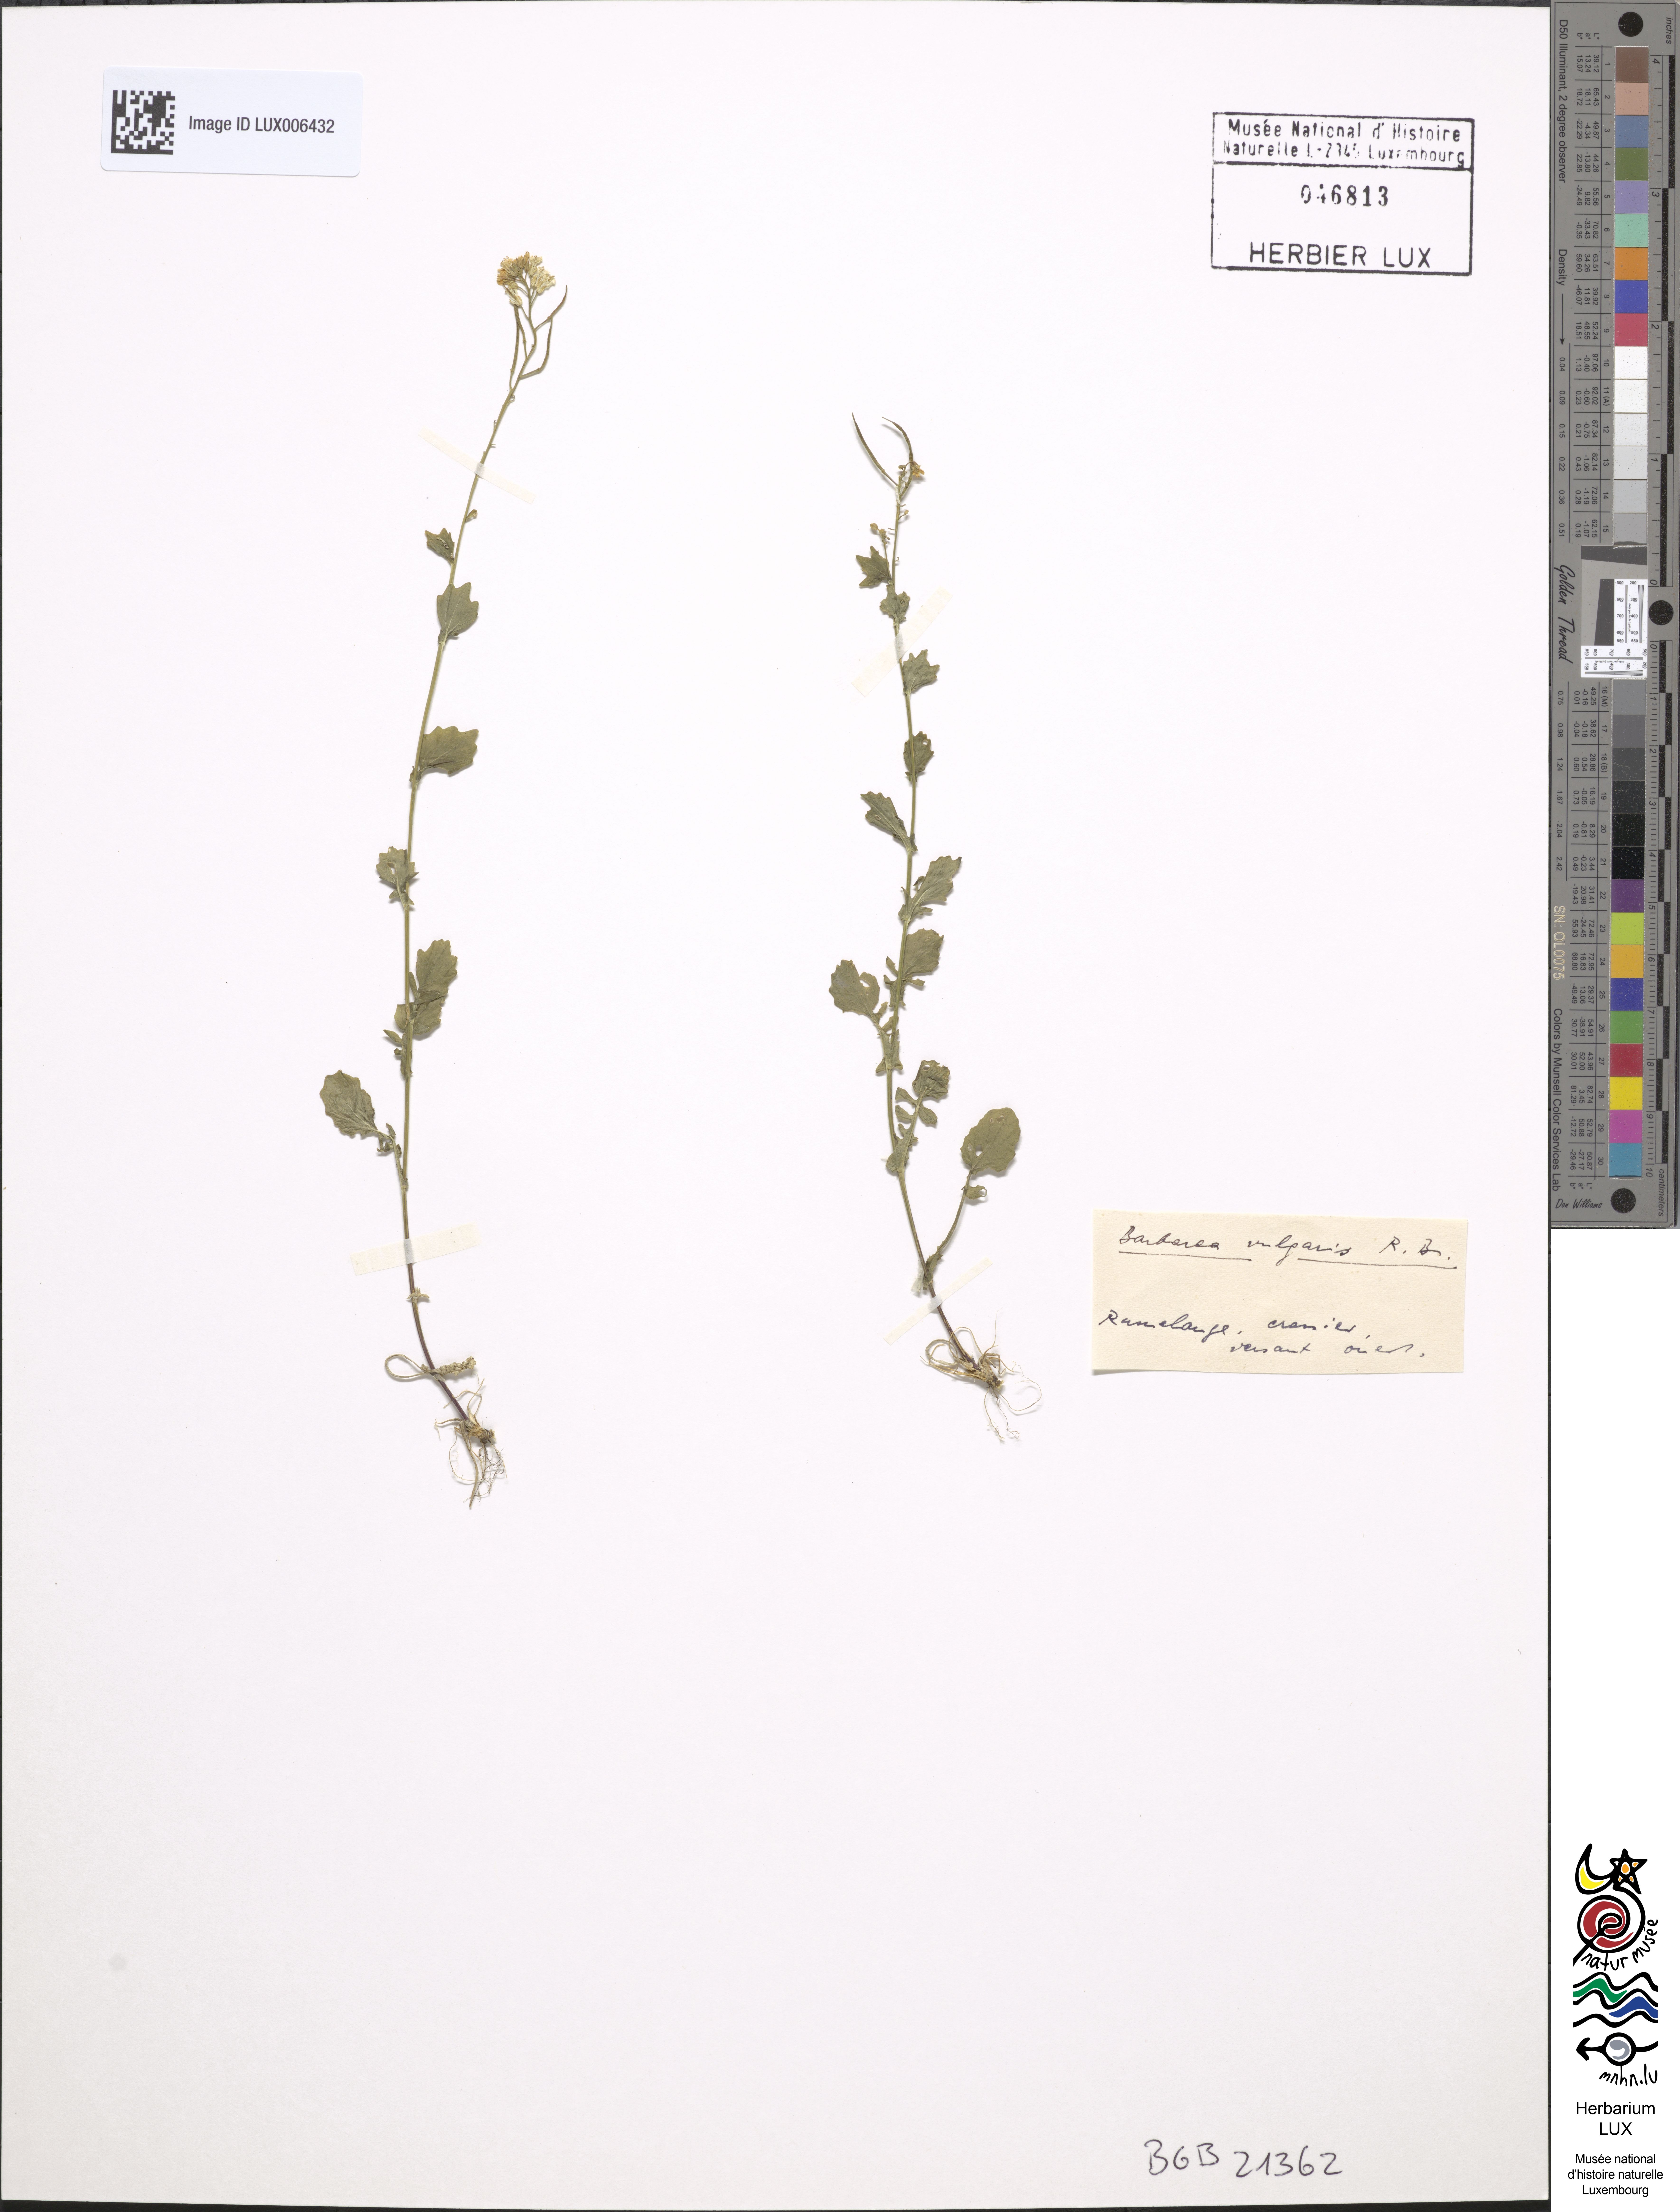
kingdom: Plantae
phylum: Tracheophyta
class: Magnoliopsida
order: Brassicales
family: Brassicaceae
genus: Barbarea
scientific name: Barbarea vulgaris
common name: Cressy-greens
